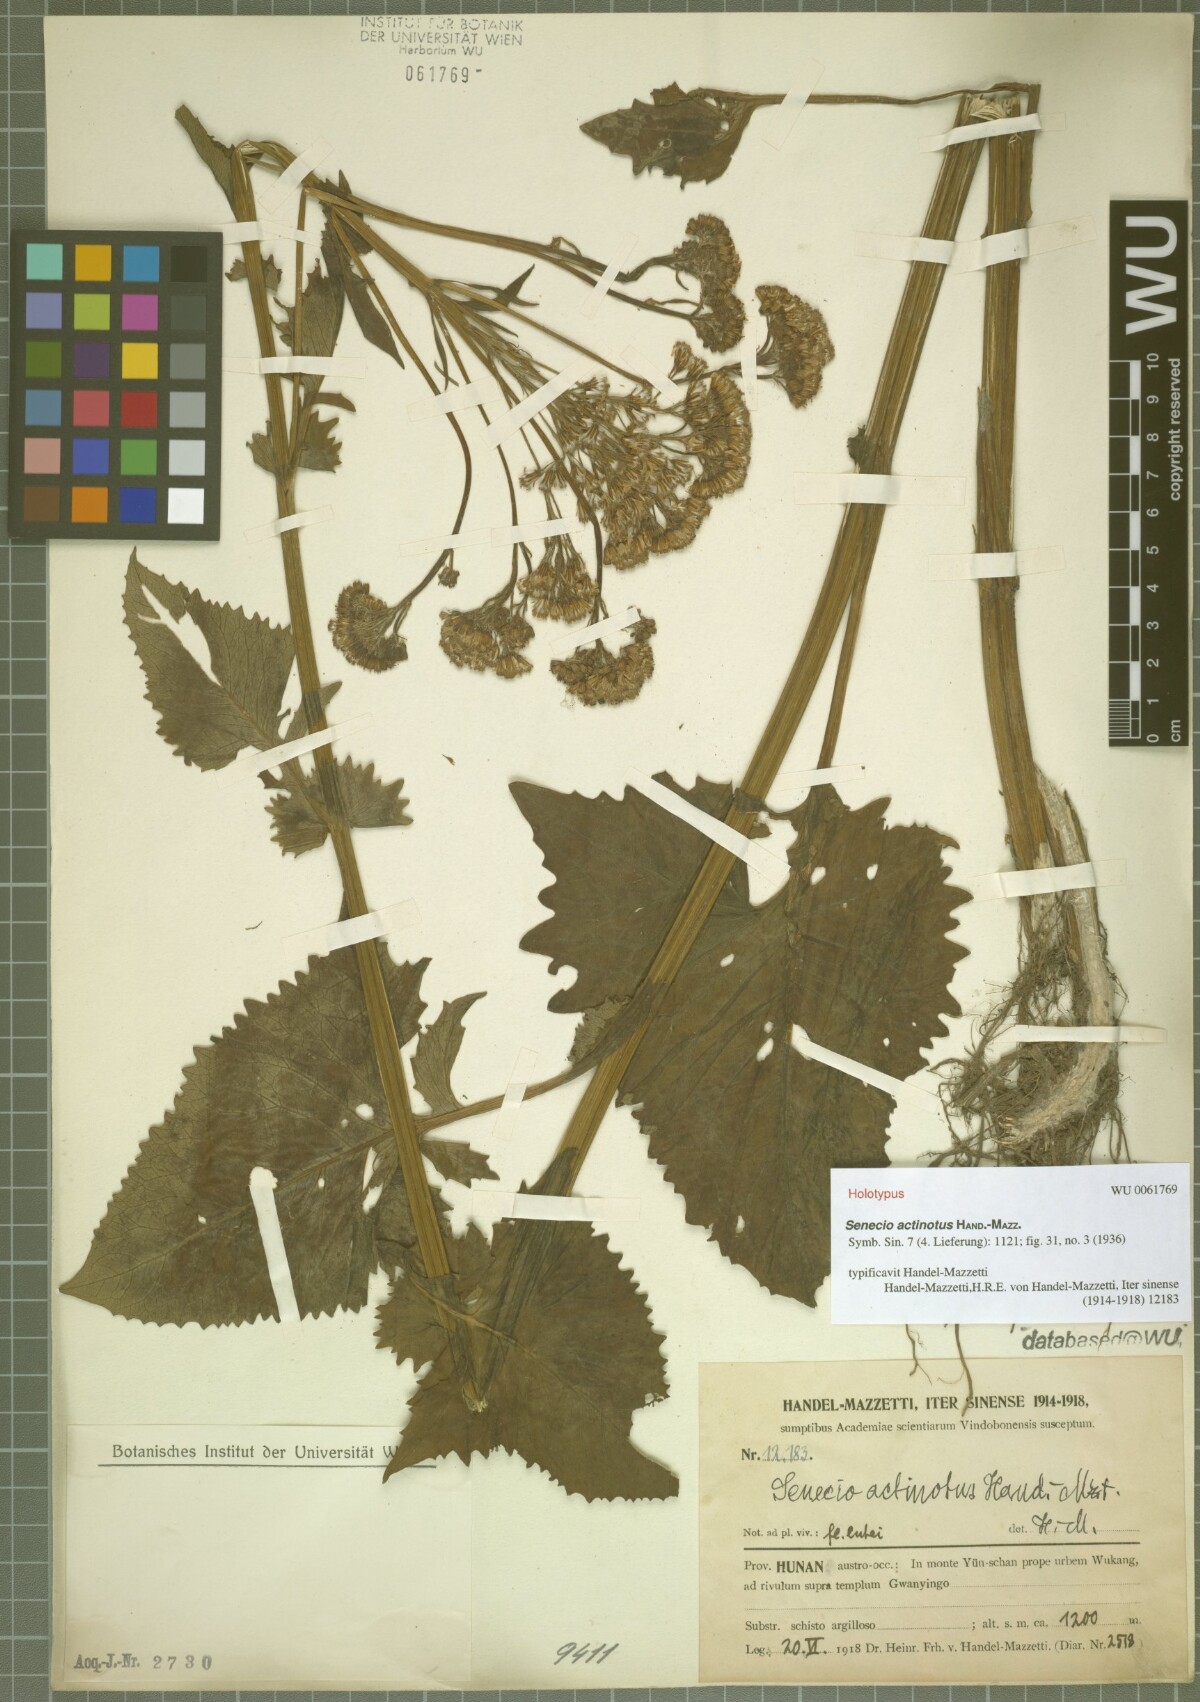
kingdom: Plantae
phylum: Tracheophyta
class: Magnoliopsida
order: Asterales
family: Asteraceae
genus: Senecio
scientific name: Senecio actinotus
